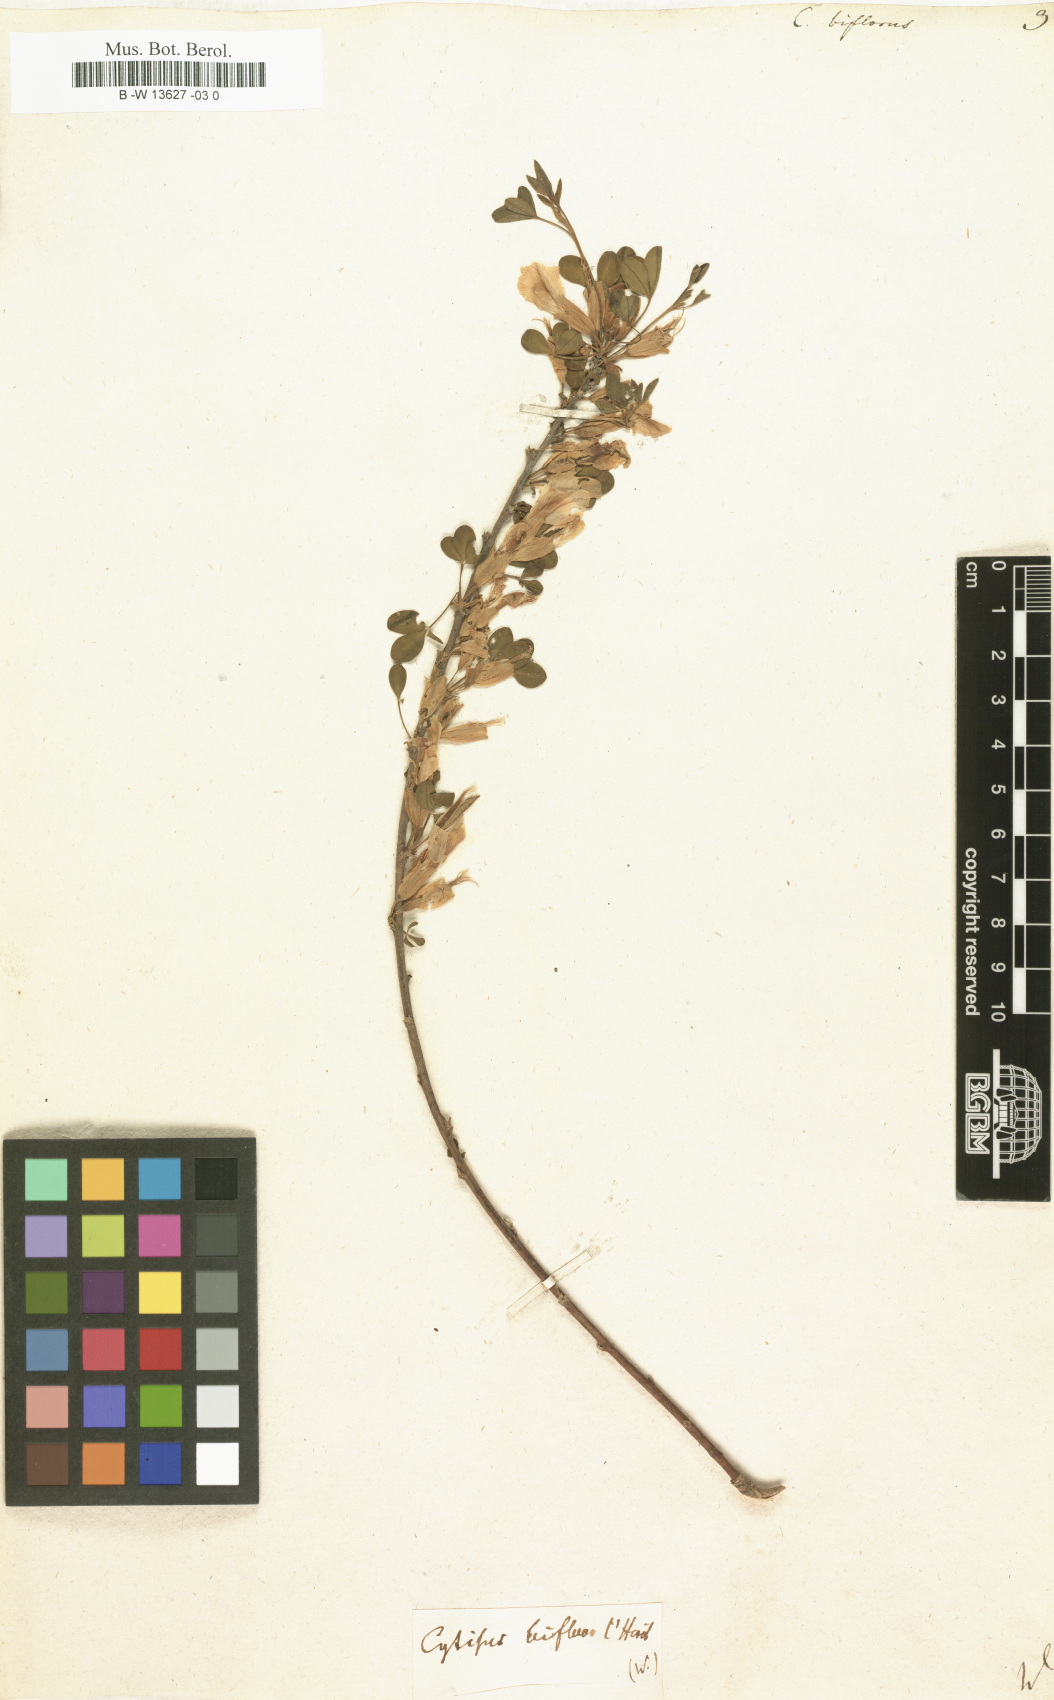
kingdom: Plantae
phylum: Tracheophyta
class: Magnoliopsida
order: Fabales
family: Fabaceae
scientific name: Fabaceae
